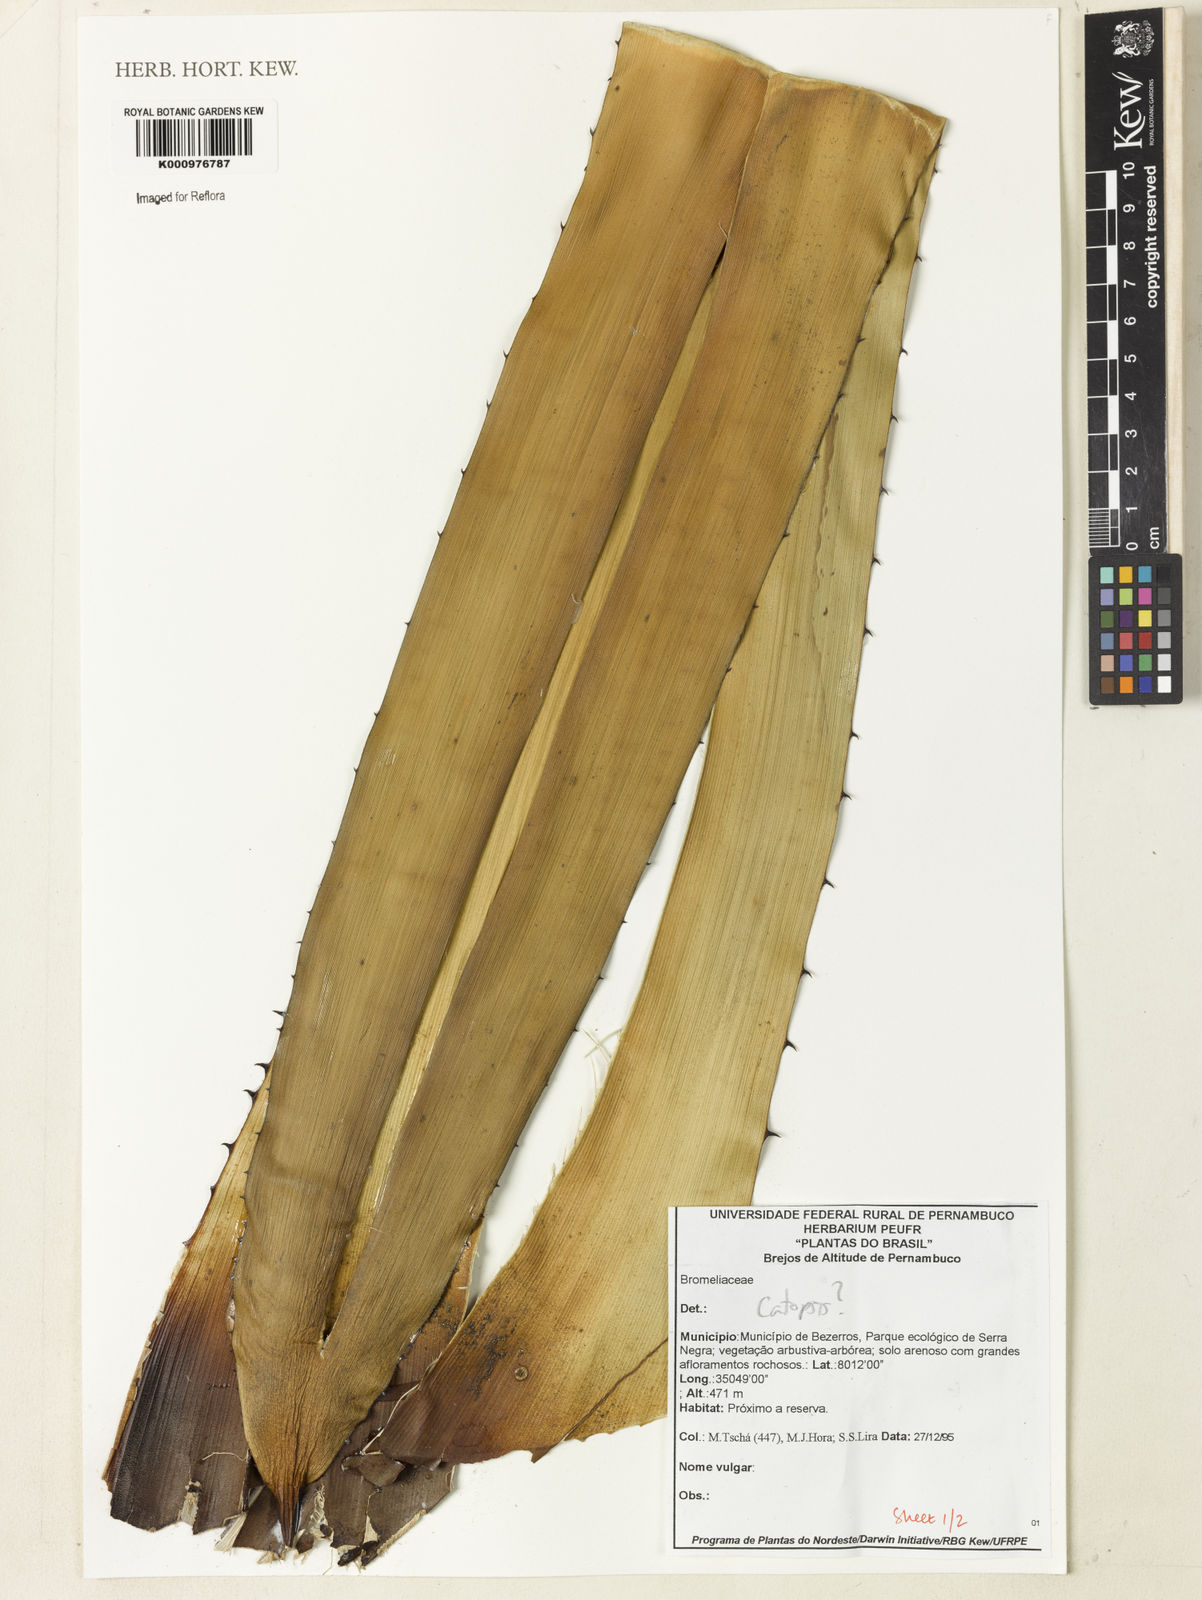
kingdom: Plantae
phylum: Tracheophyta
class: Liliopsida
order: Poales
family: Bromeliaceae
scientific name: Bromeliaceae
